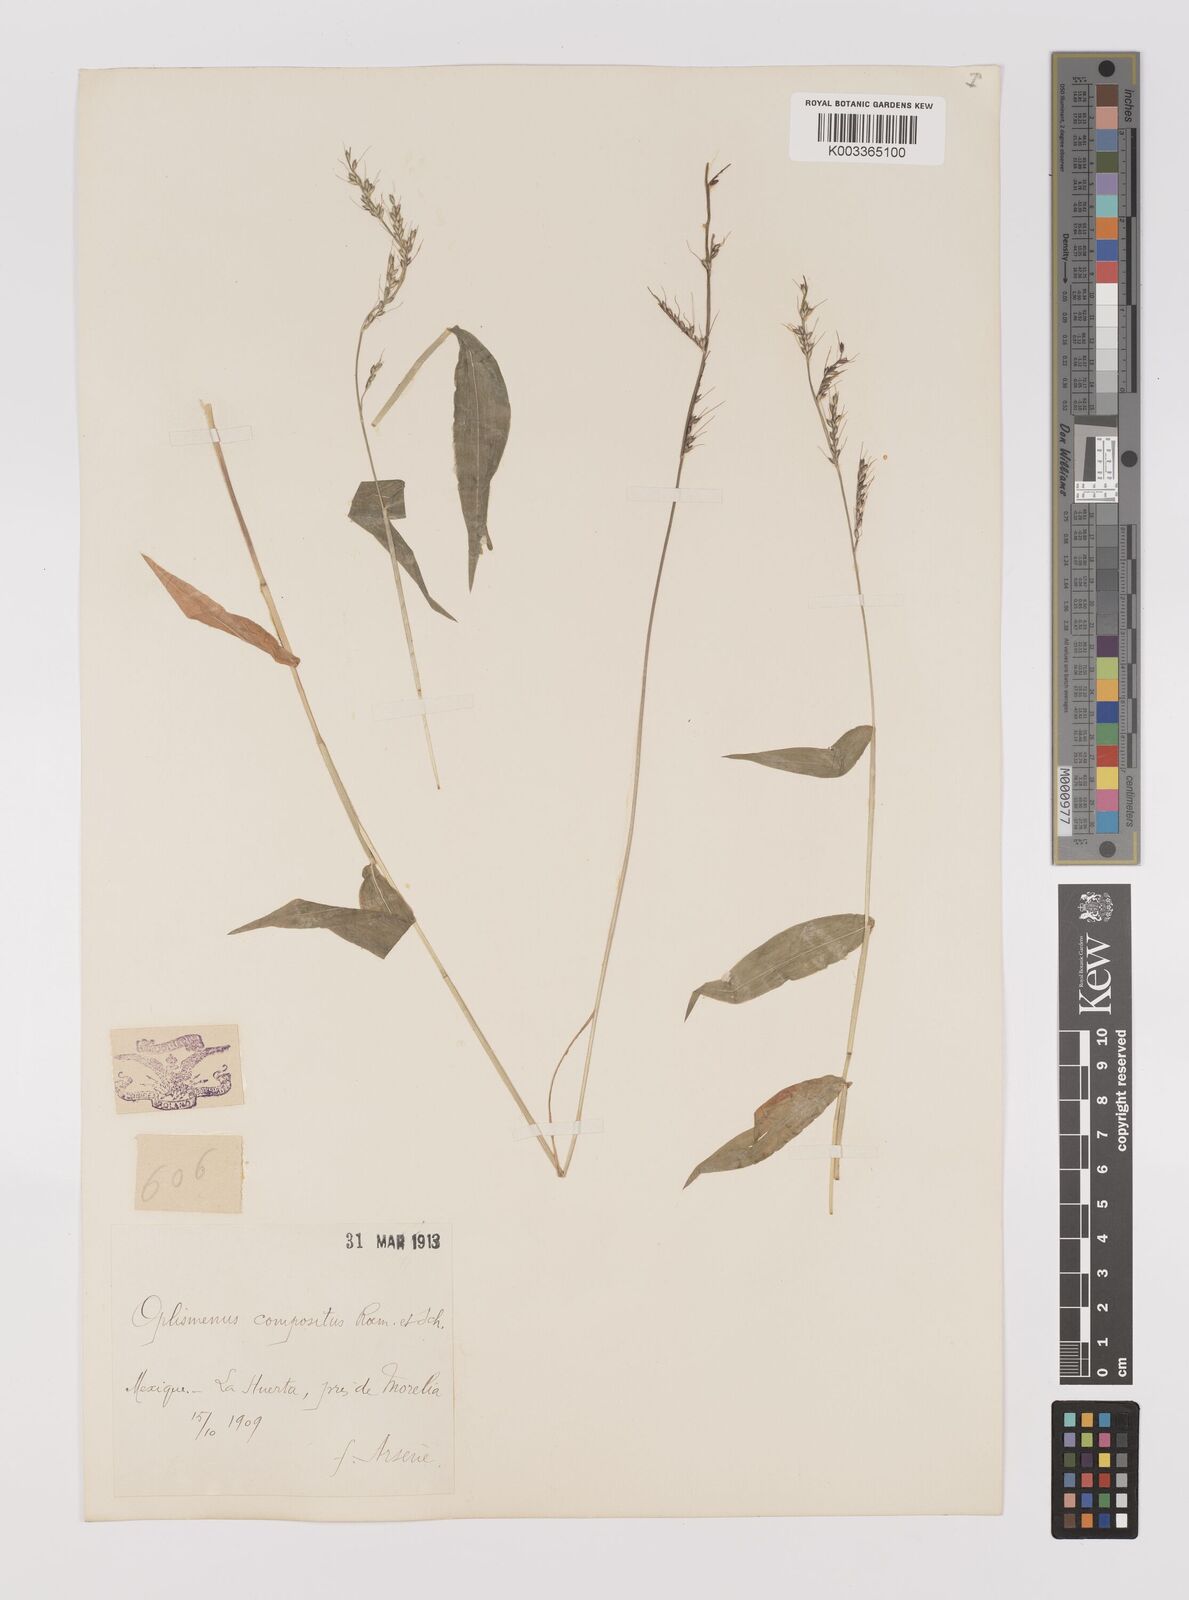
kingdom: Plantae
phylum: Tracheophyta
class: Liliopsida
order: Poales
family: Poaceae
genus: Oplismenus
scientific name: Oplismenus compositus
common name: Running mountain grass
